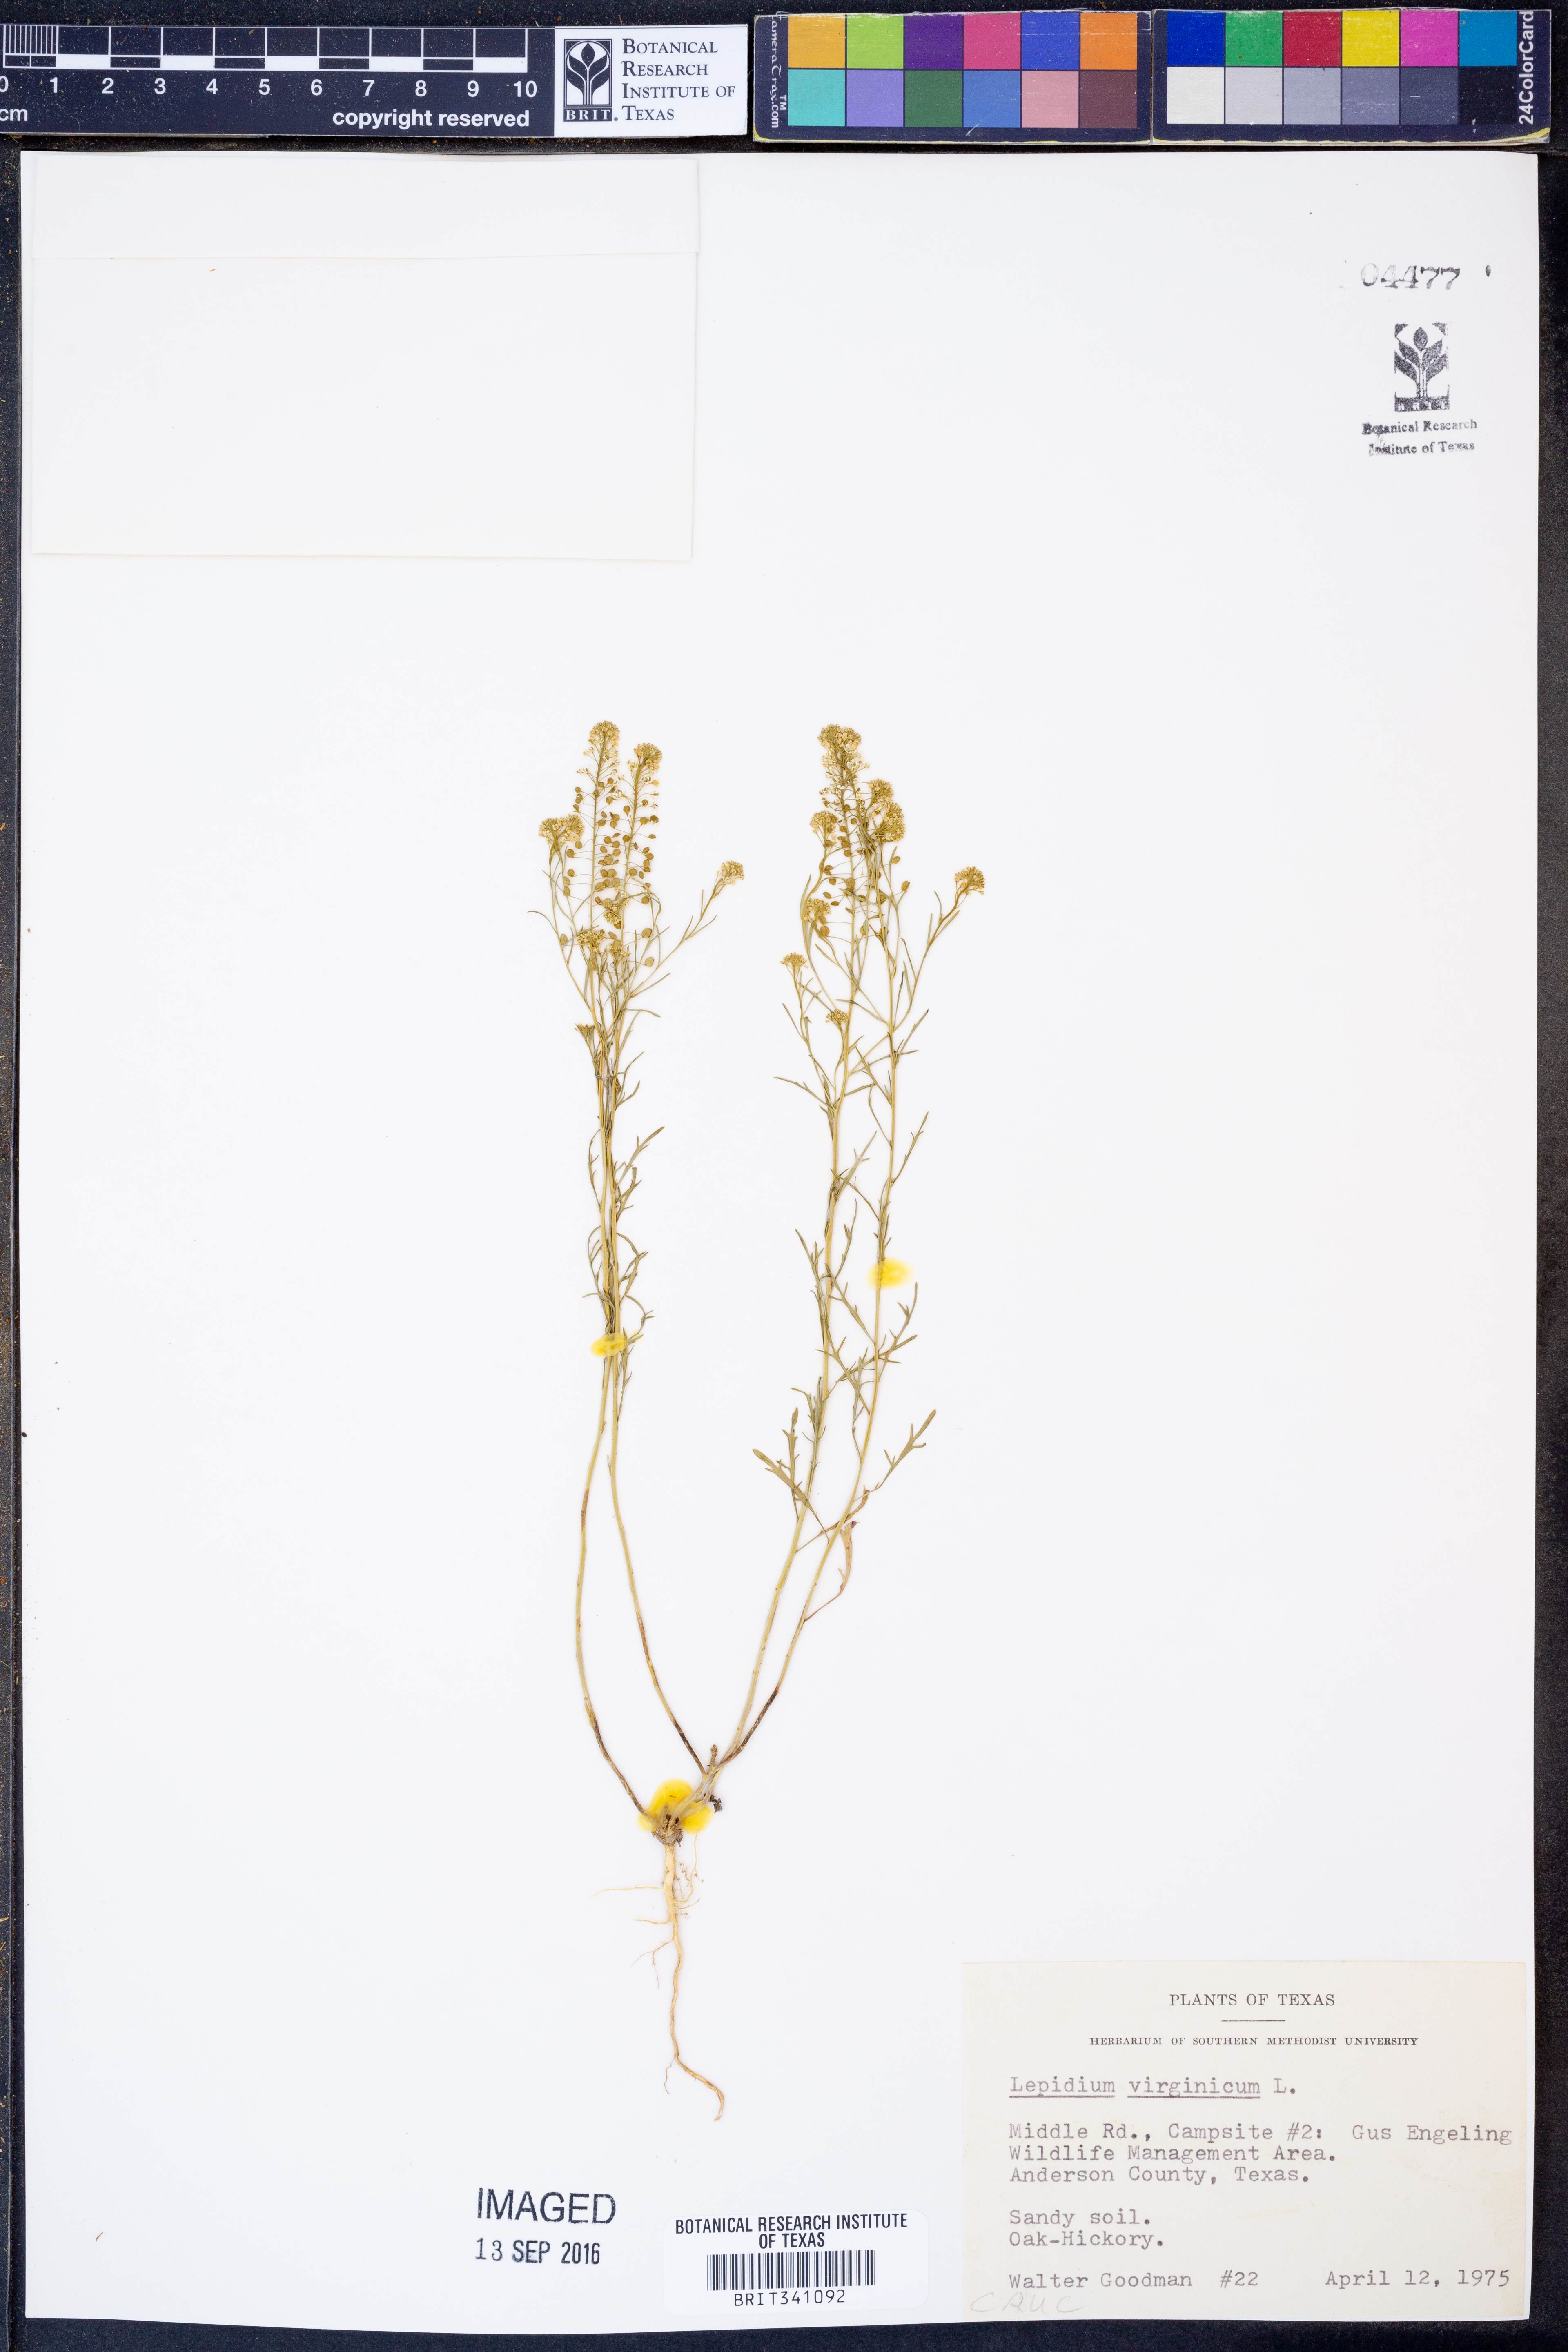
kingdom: Plantae
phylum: Tracheophyta
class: Magnoliopsida
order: Brassicales
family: Brassicaceae
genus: Lepidium
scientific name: Lepidium virginicum
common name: Least pepperwort
